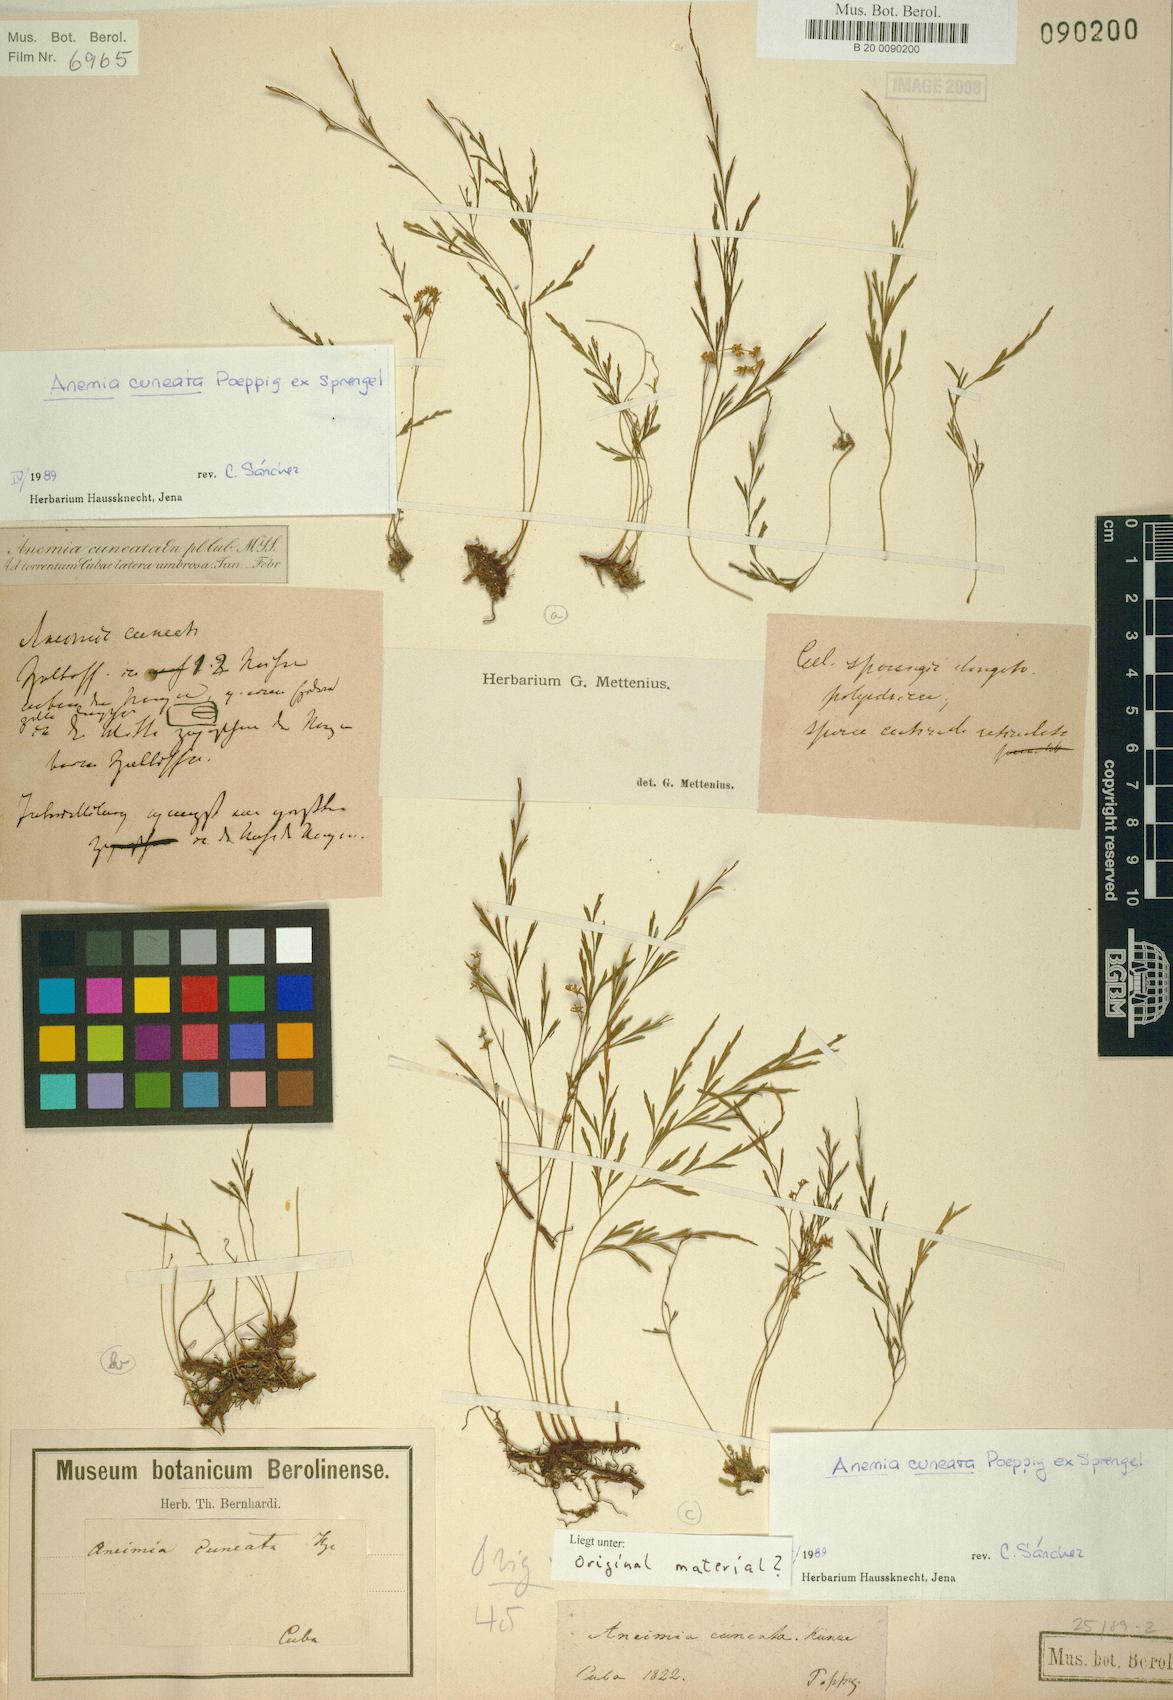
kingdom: Plantae
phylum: Tracheophyta
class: Polypodiopsida
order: Schizaeales
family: Anemiaceae
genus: Anemia
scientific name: Anemia cuneata
